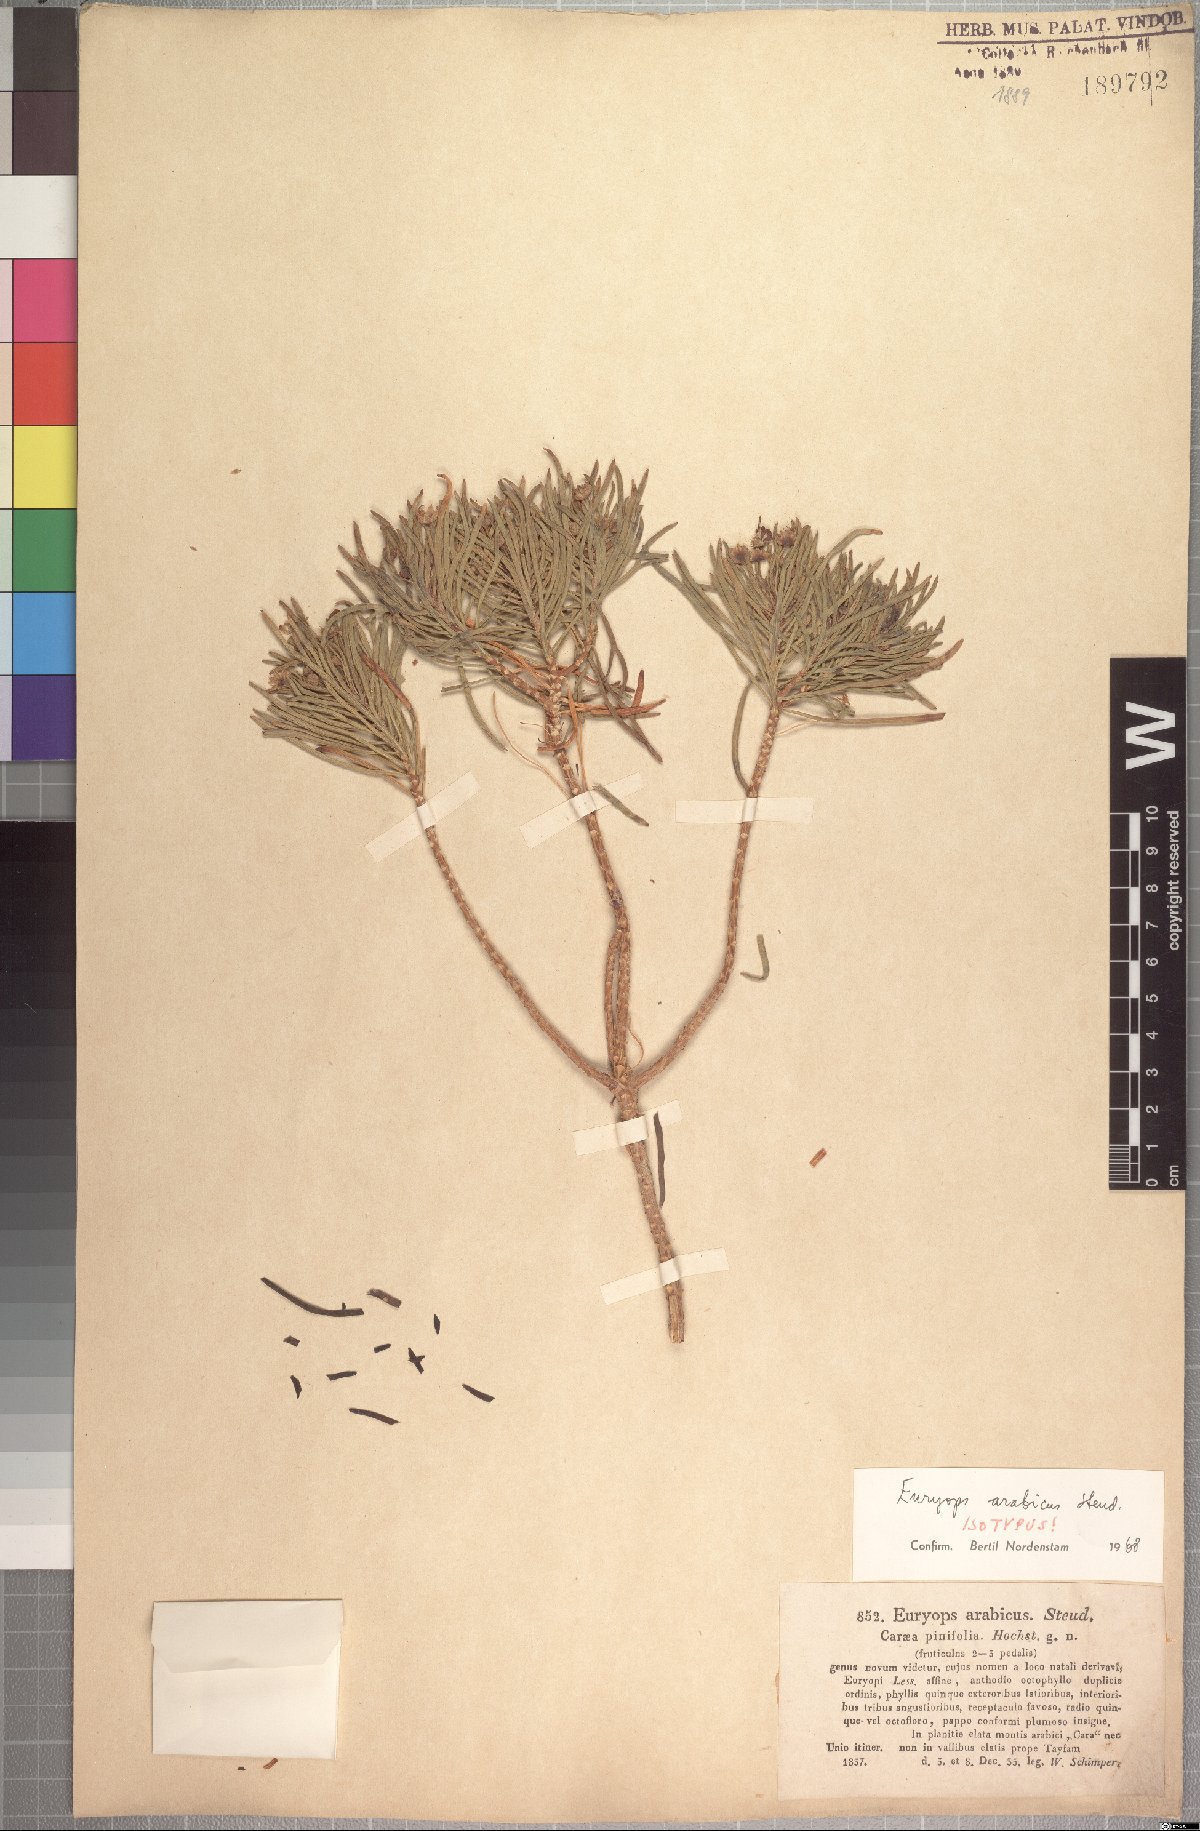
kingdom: Plantae
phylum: Tracheophyta
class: Magnoliopsida
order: Asterales
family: Asteraceae
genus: Euryops
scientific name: Euryops arabicus
